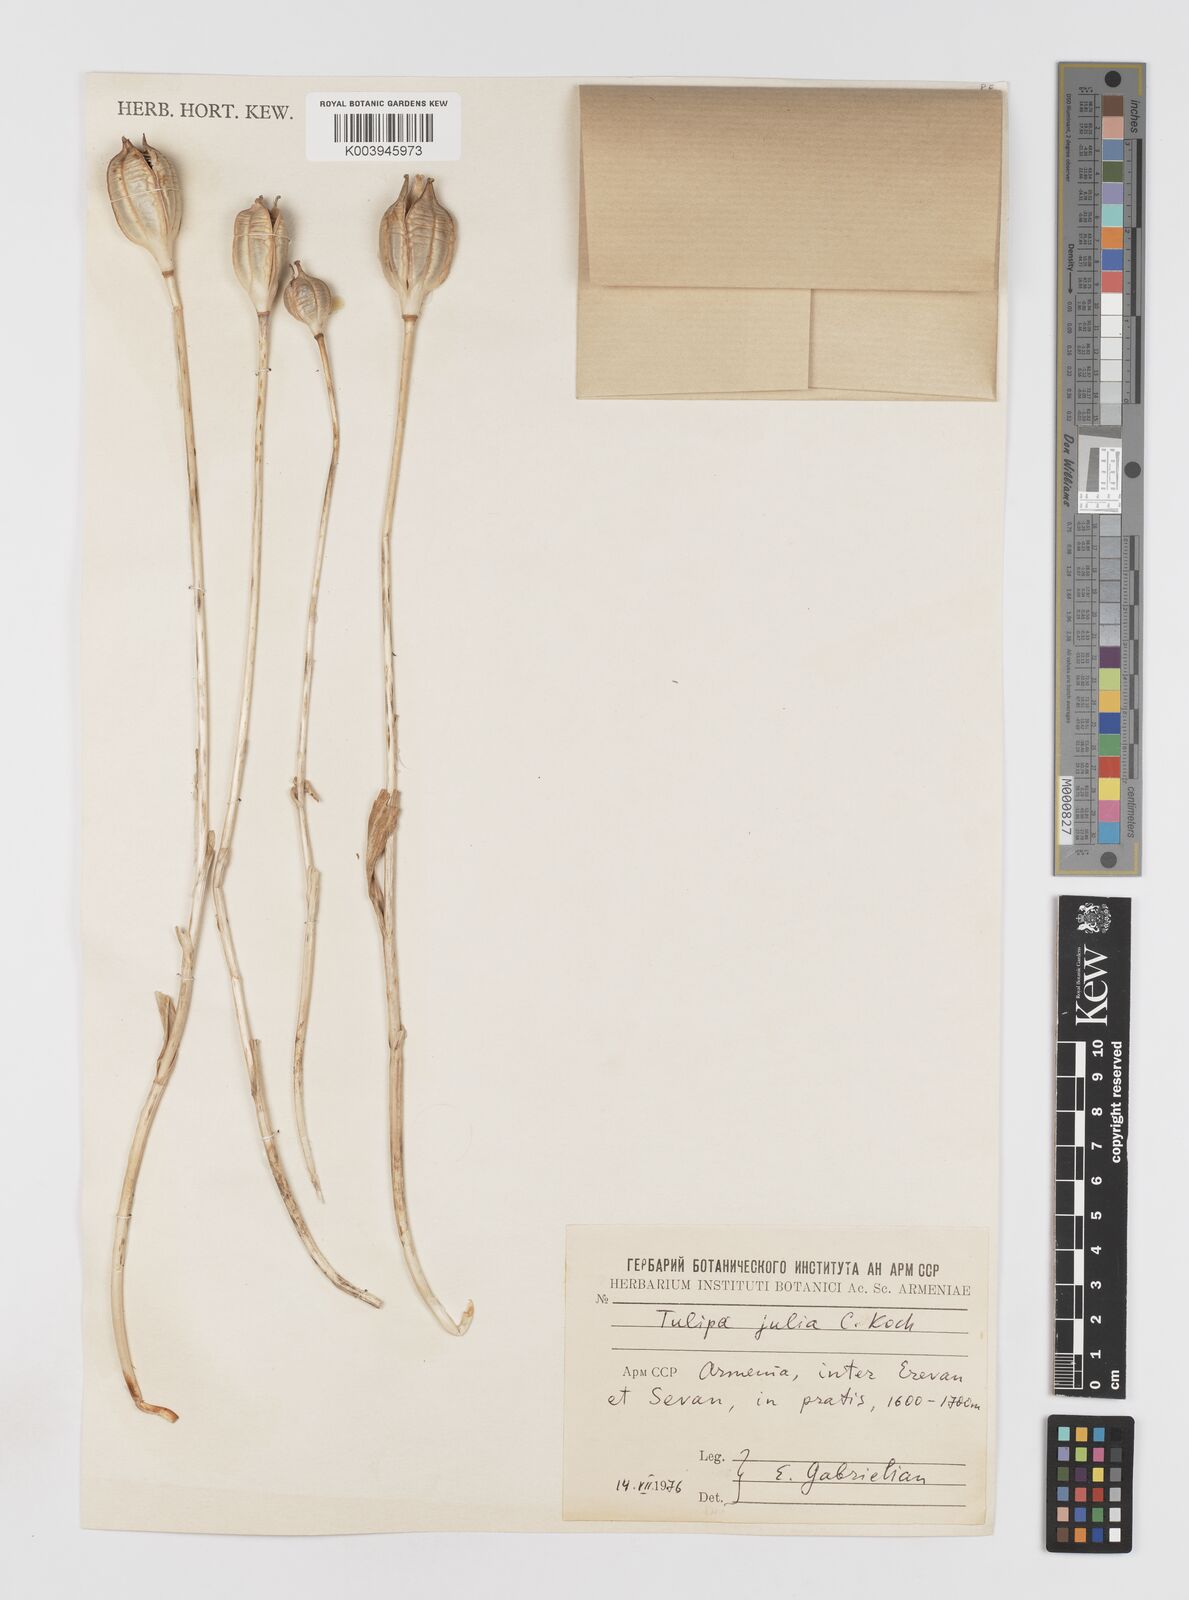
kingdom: Plantae
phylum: Tracheophyta
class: Liliopsida
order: Liliales
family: Liliaceae
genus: Tulipa
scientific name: Tulipa julia
